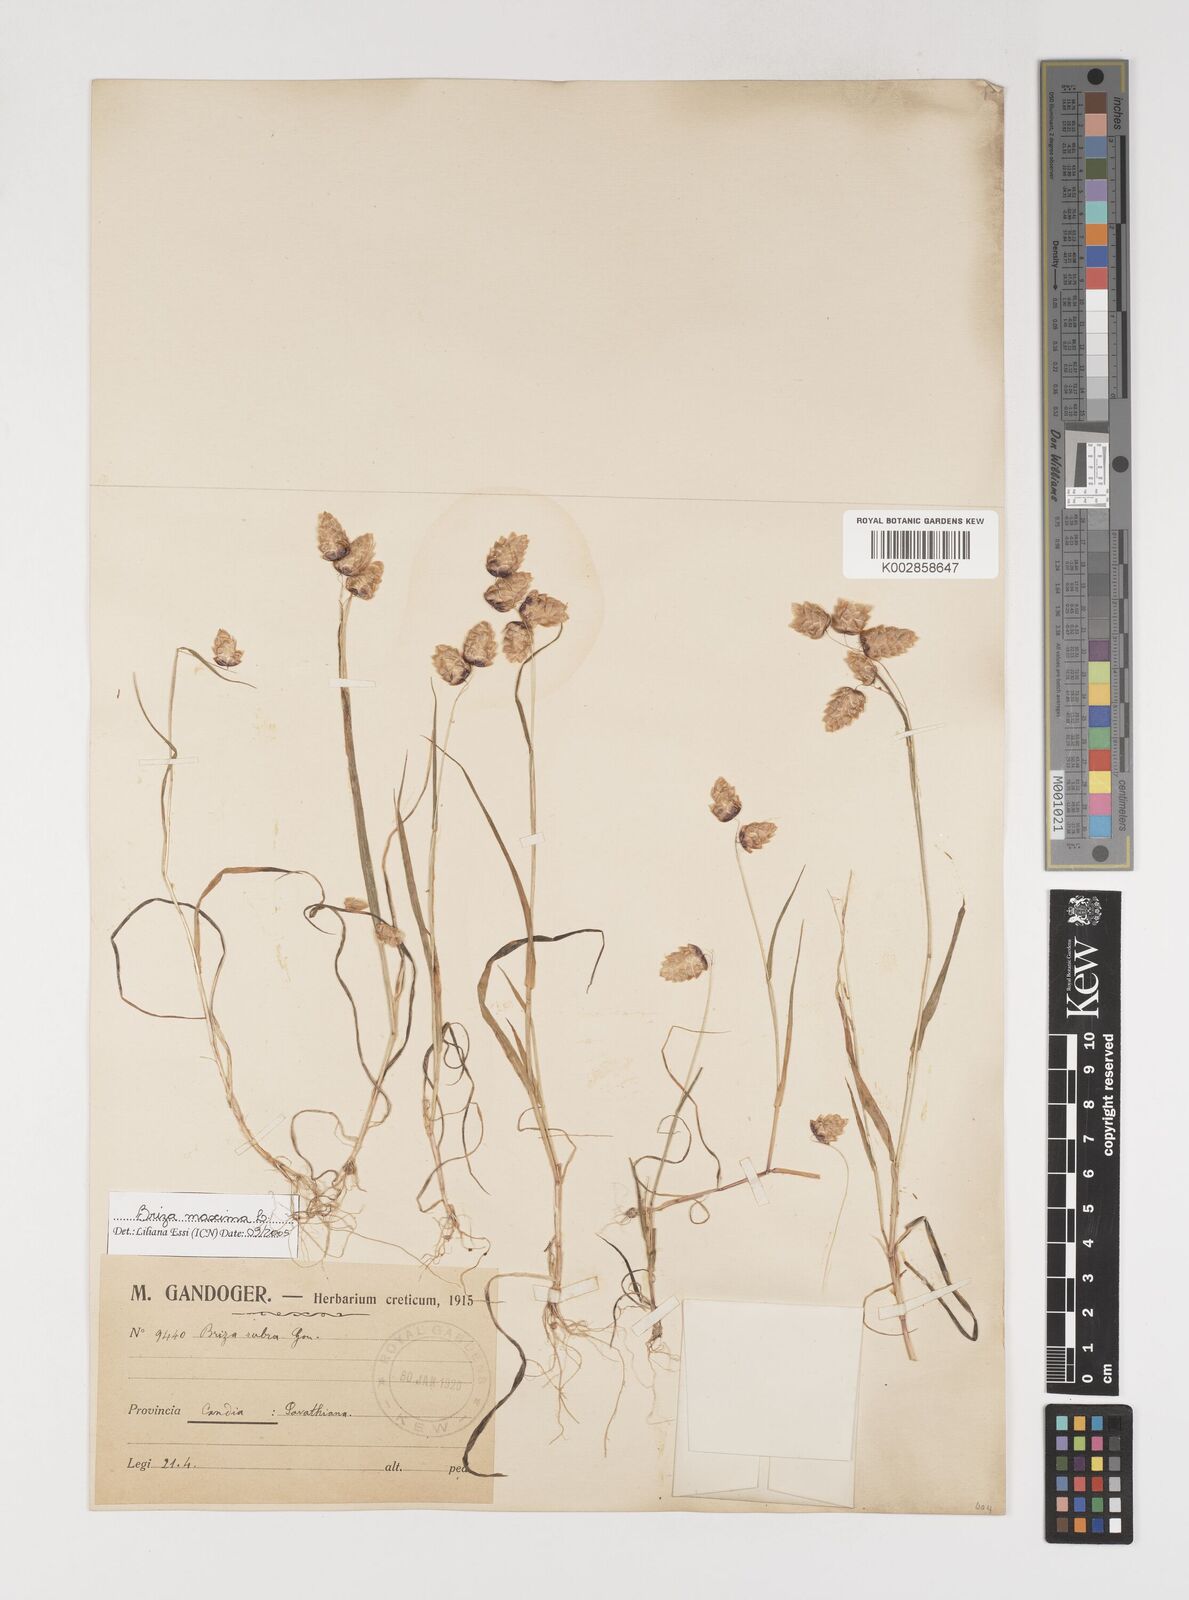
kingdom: Plantae
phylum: Tracheophyta
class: Liliopsida
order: Poales
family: Poaceae
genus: Briza
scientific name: Briza maxima
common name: Big quakinggrass
